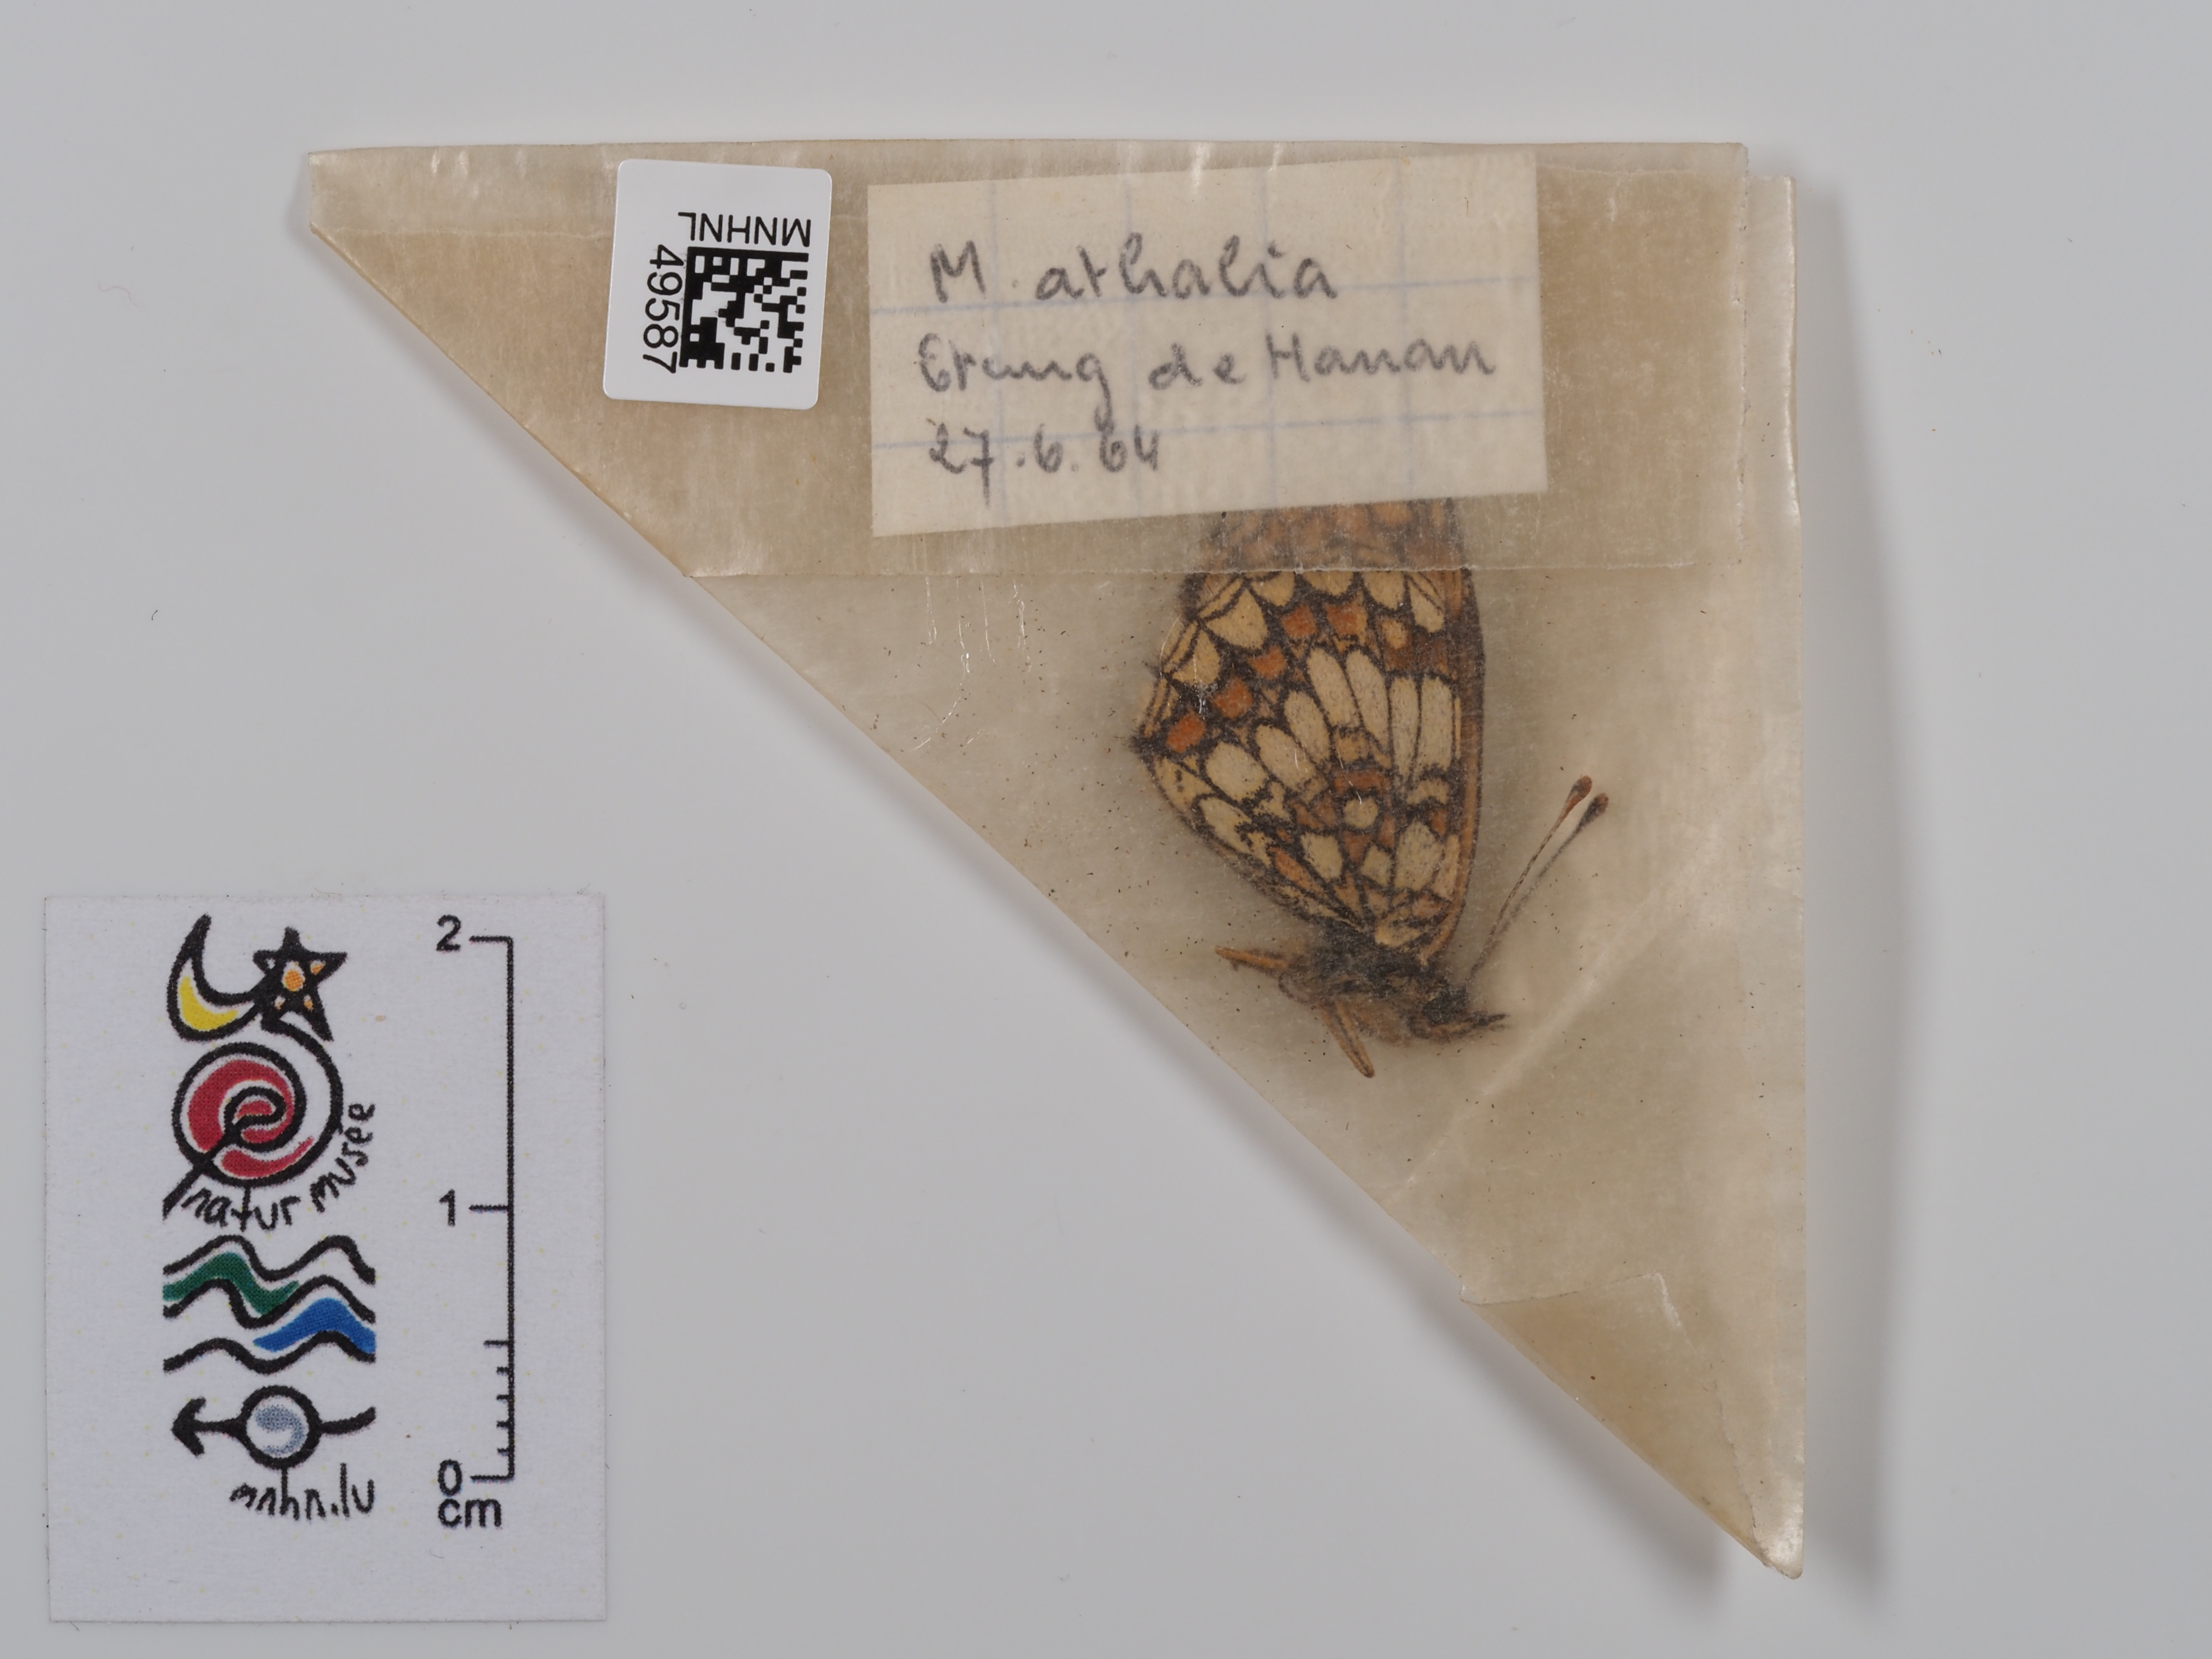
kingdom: Animalia
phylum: Arthropoda
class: Insecta
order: Lepidoptera
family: Nymphalidae
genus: Mellicta
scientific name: Mellicta athalia
